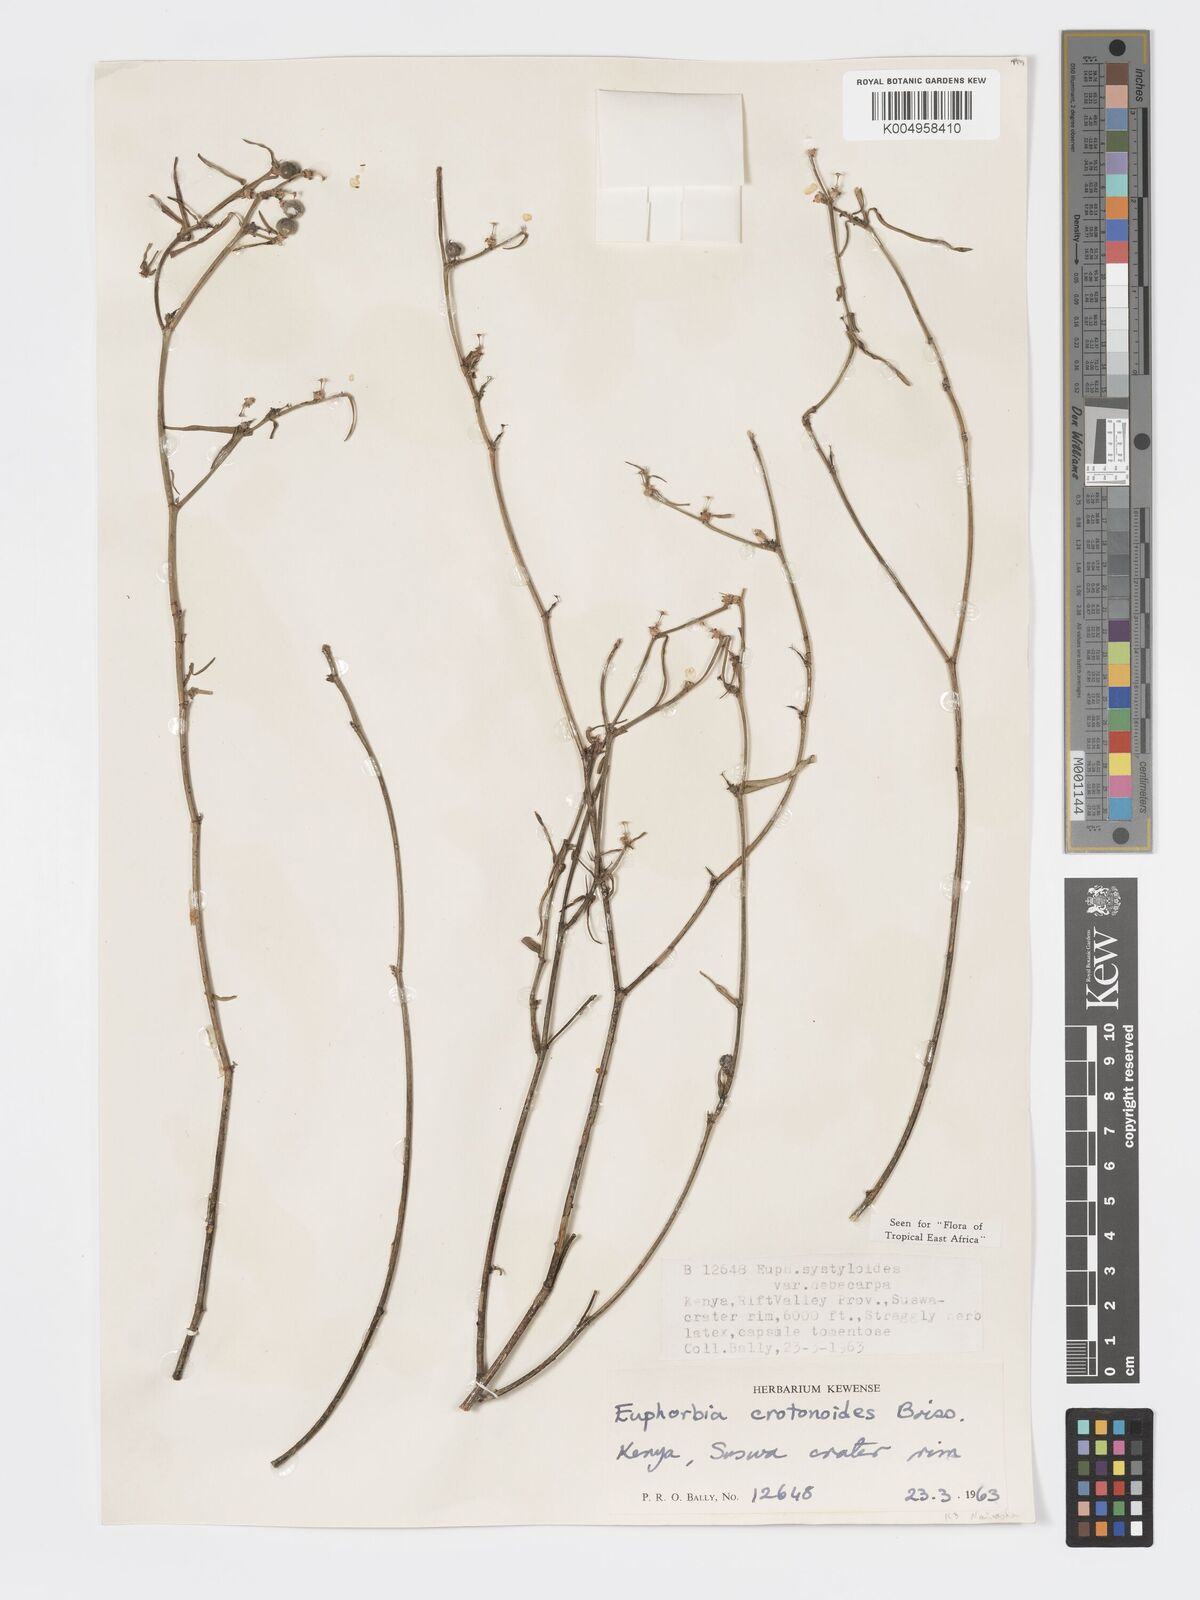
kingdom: Plantae
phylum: Tracheophyta
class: Magnoliopsida
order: Malpighiales
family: Euphorbiaceae
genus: Euphorbia
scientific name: Euphorbia crotonoides
